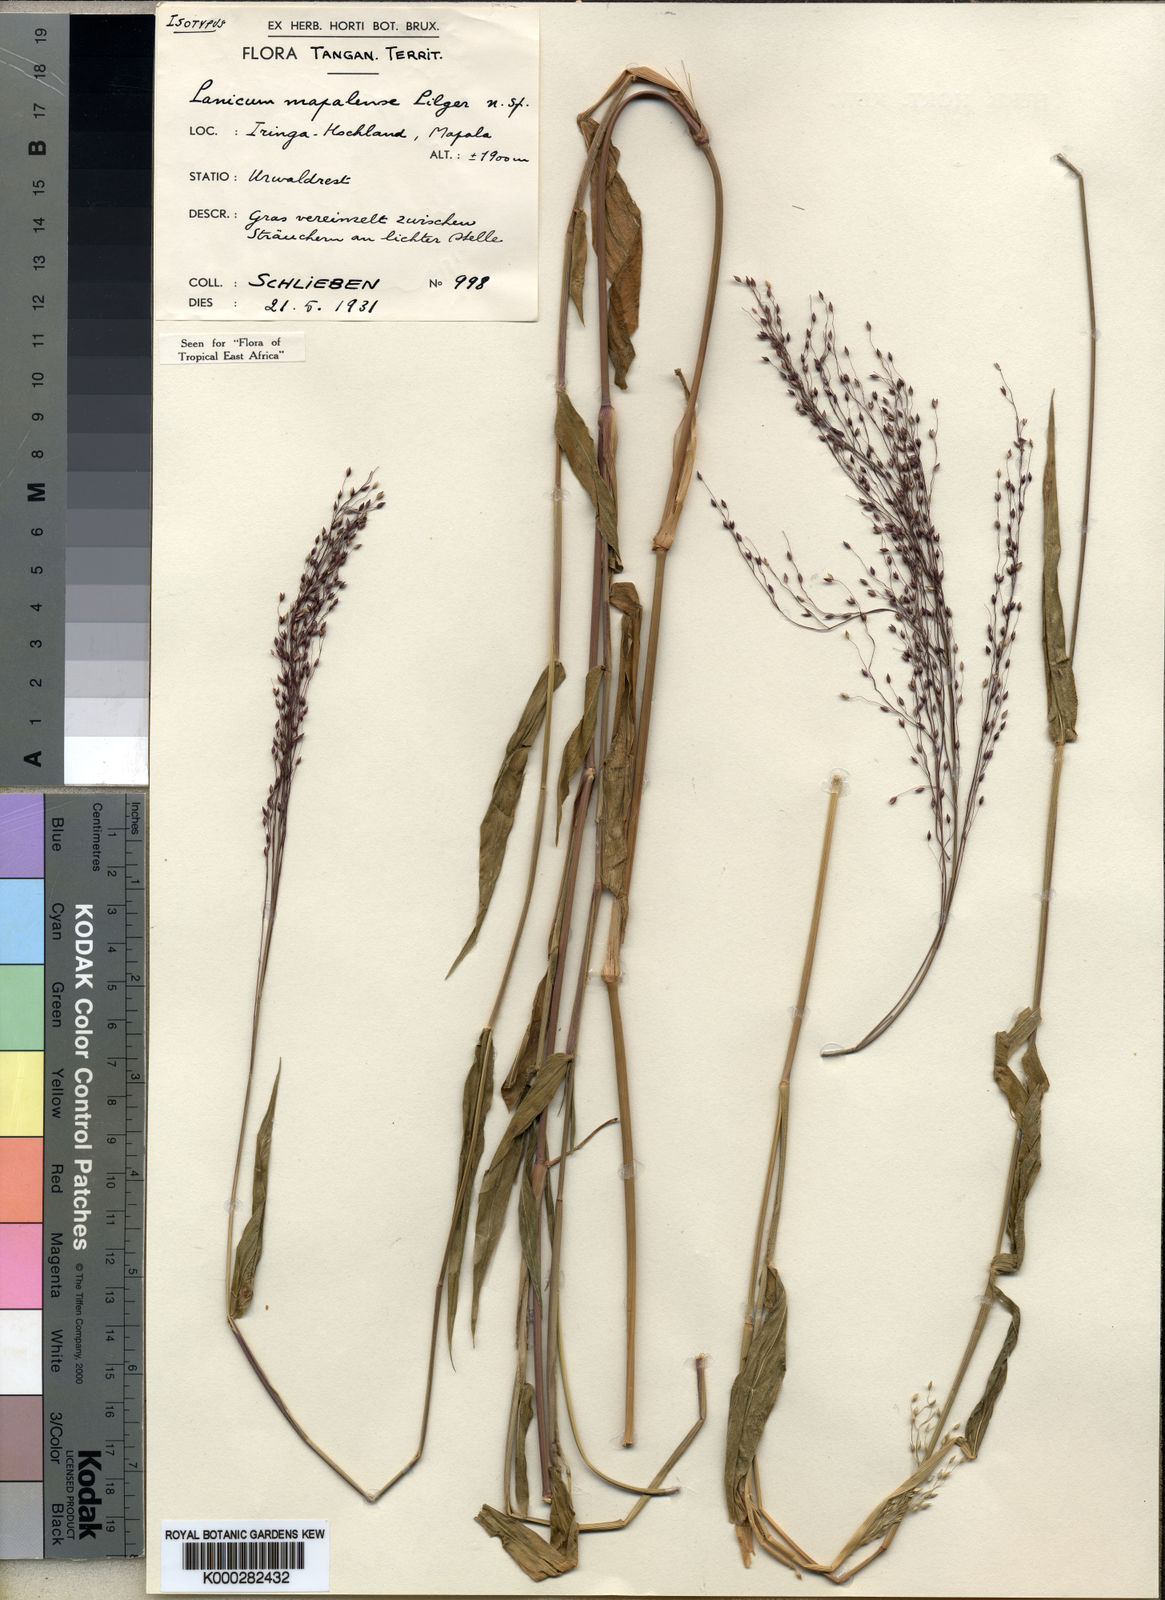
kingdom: Plantae
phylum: Tracheophyta
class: Liliopsida
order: Poales
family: Poaceae
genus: Panicum
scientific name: Panicum mapalense
